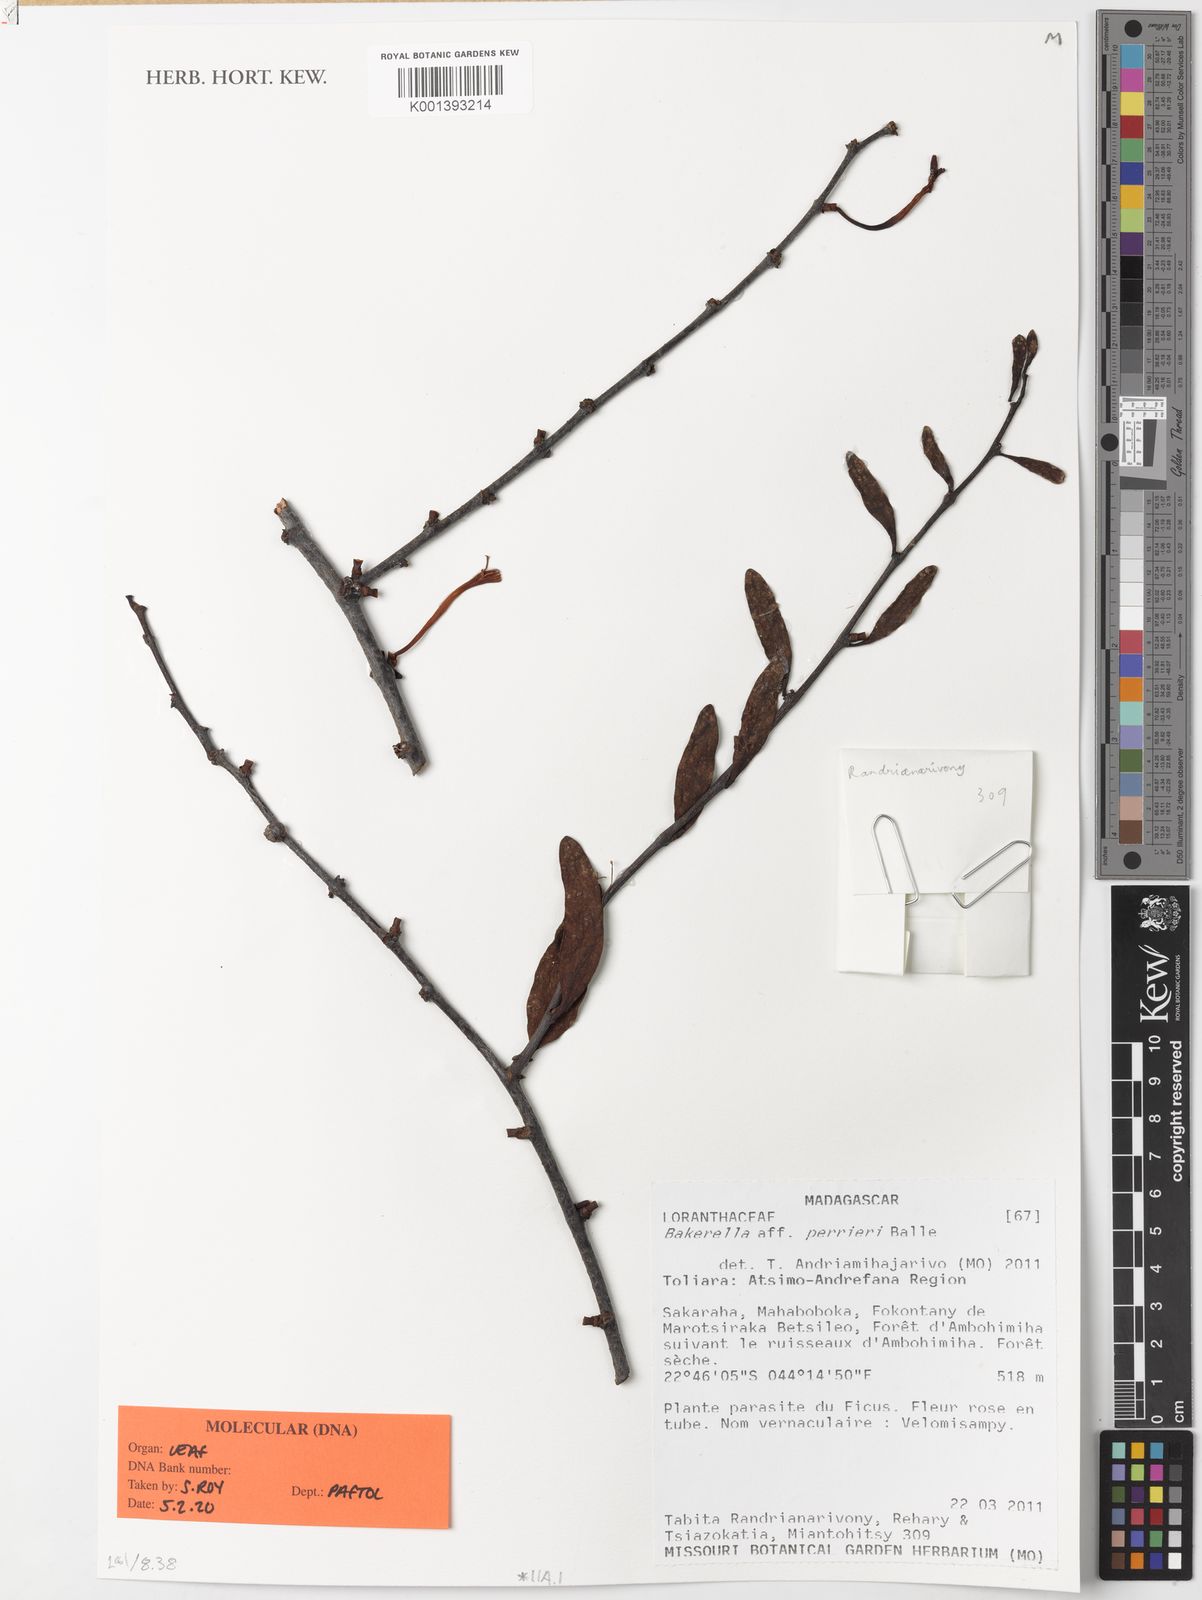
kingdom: Plantae
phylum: Tracheophyta
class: Magnoliopsida
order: Santalales
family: Loranthaceae
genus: Bakerella
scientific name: Bakerella perrieri
